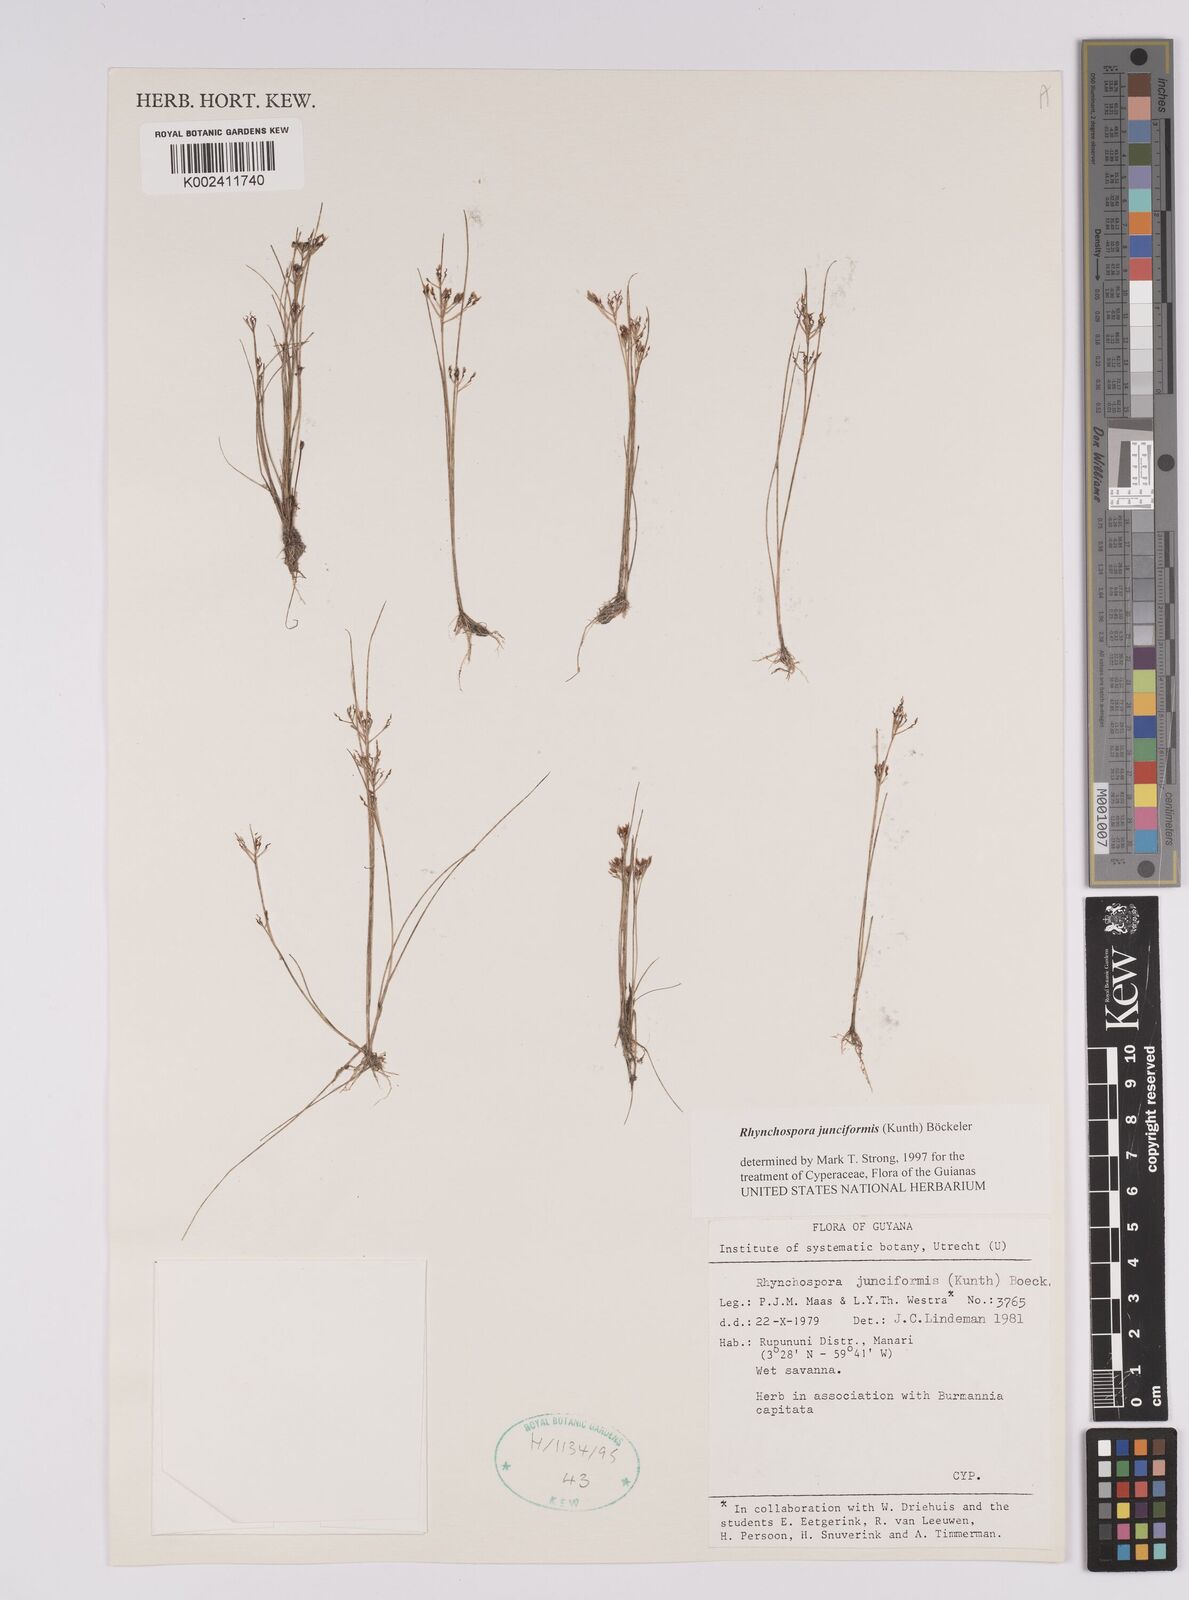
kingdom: Plantae
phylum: Tracheophyta
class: Liliopsida
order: Poales
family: Cyperaceae
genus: Rhynchospora
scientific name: Rhynchospora junciformis
